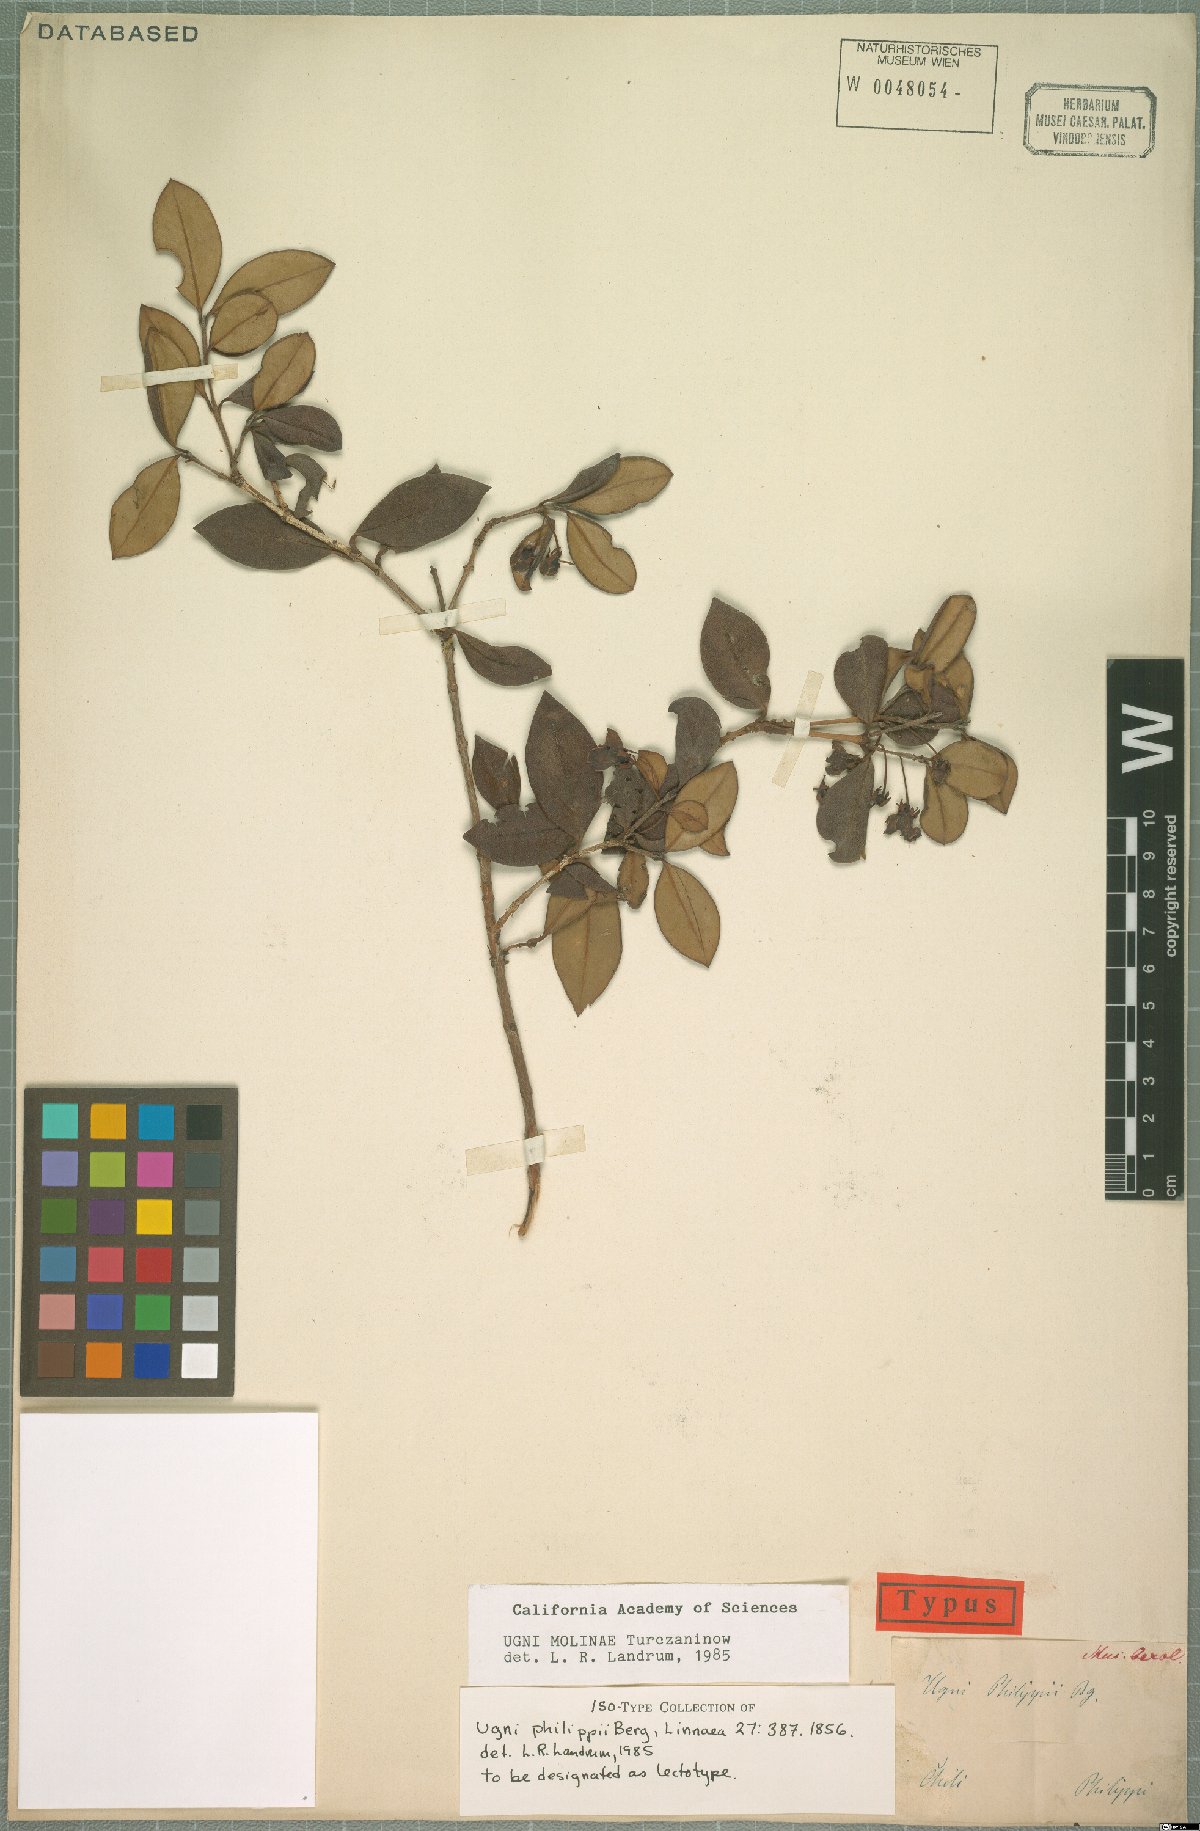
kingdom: Plantae
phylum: Tracheophyta
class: Magnoliopsida
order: Myrtales
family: Myrtaceae
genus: Ugni
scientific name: Ugni molinae
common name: Chilean-guava
